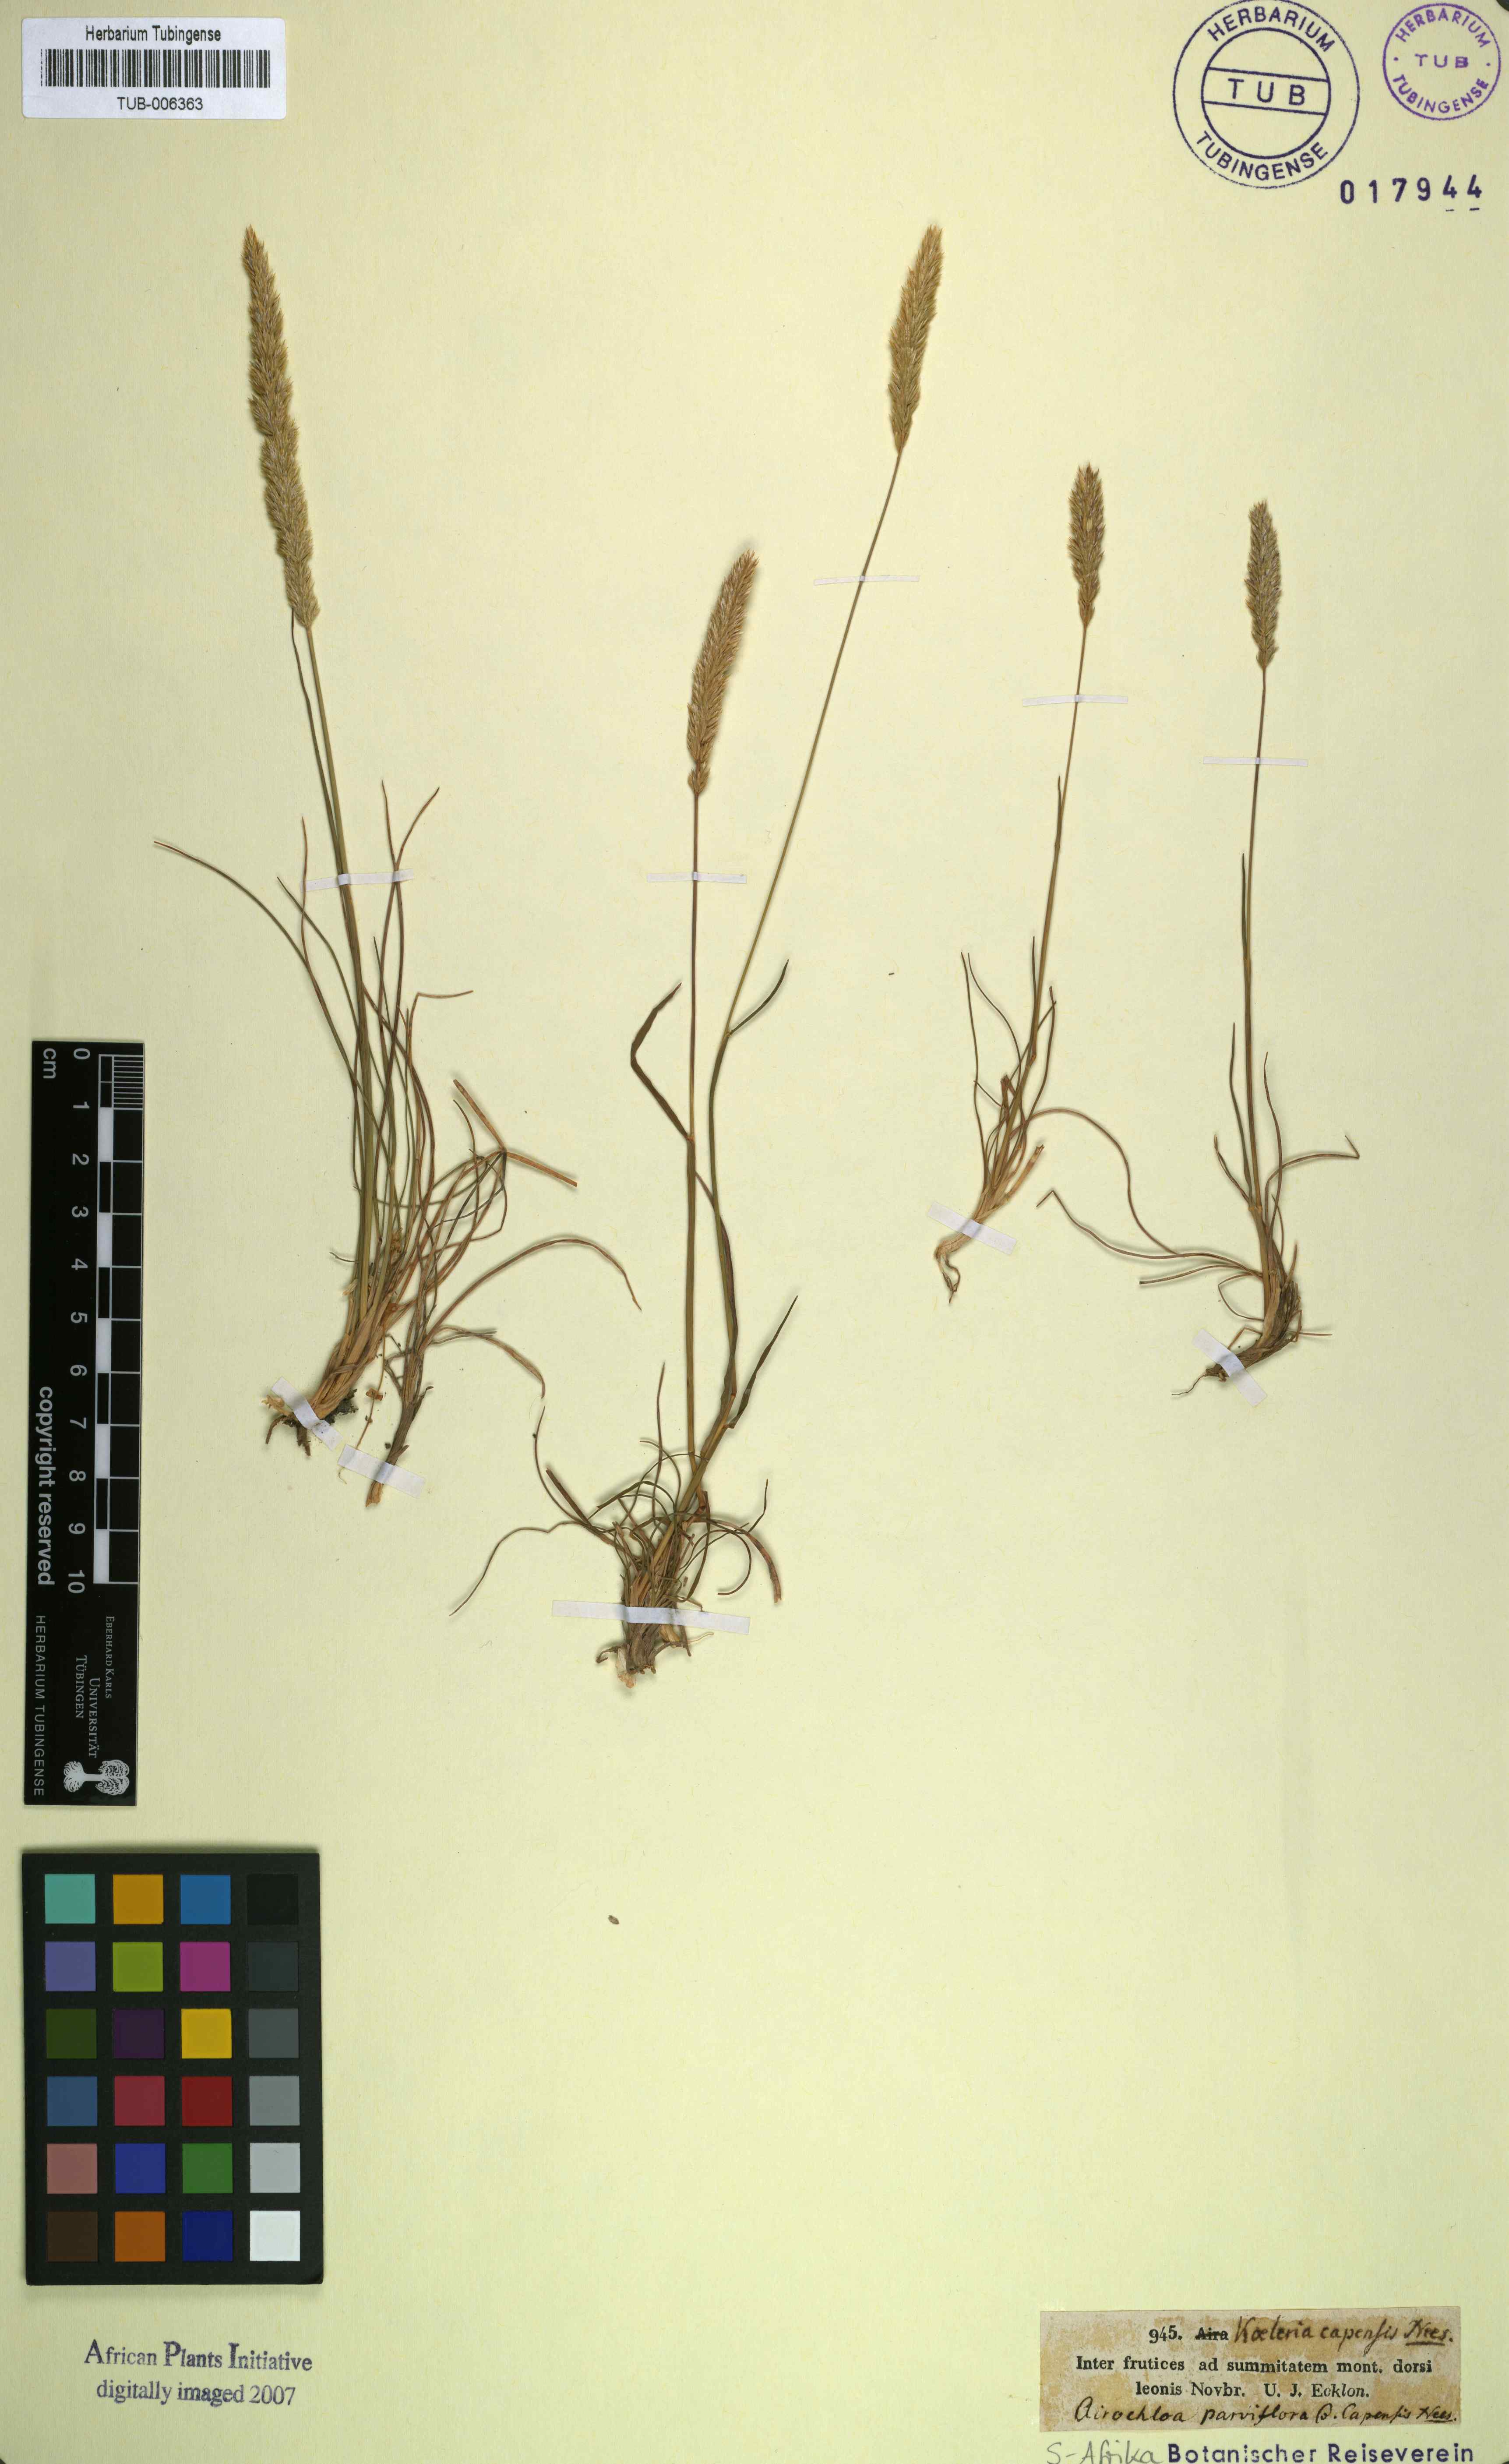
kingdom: Plantae
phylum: Tracheophyta
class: Liliopsida
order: Poales
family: Poaceae
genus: Koeleria
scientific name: Koeleria capensis
